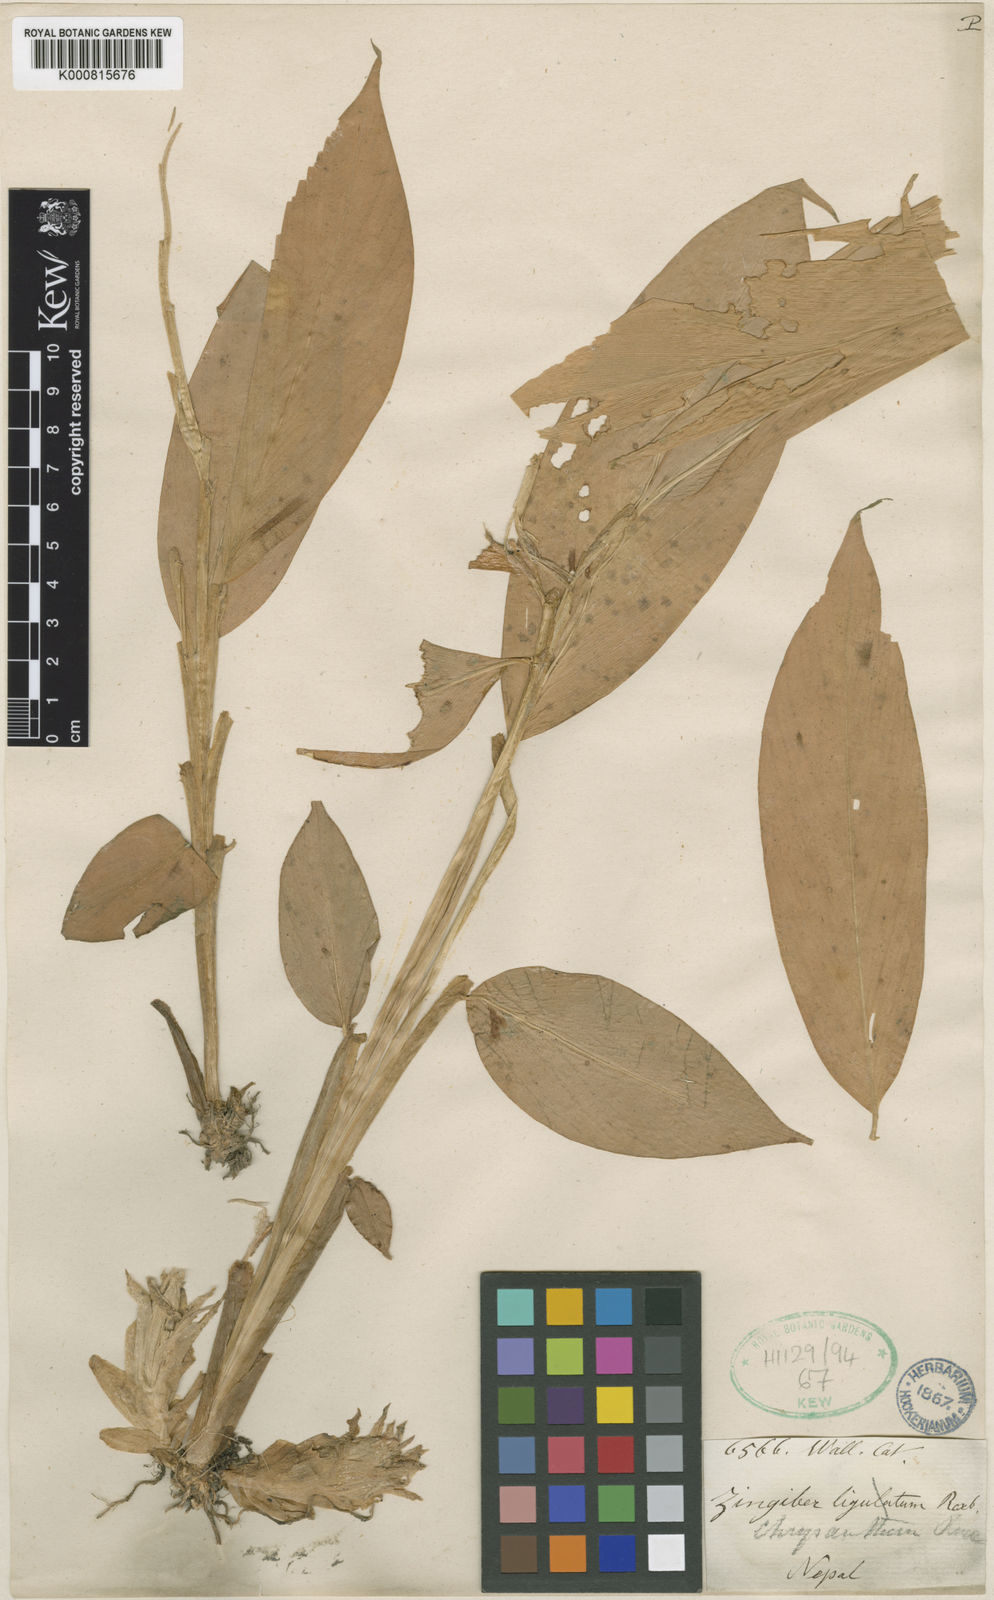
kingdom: Plantae
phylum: Tracheophyta
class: Liliopsida
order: Zingiberales
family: Zingiberaceae
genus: Zingiber
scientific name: Zingiber chrysanthum
